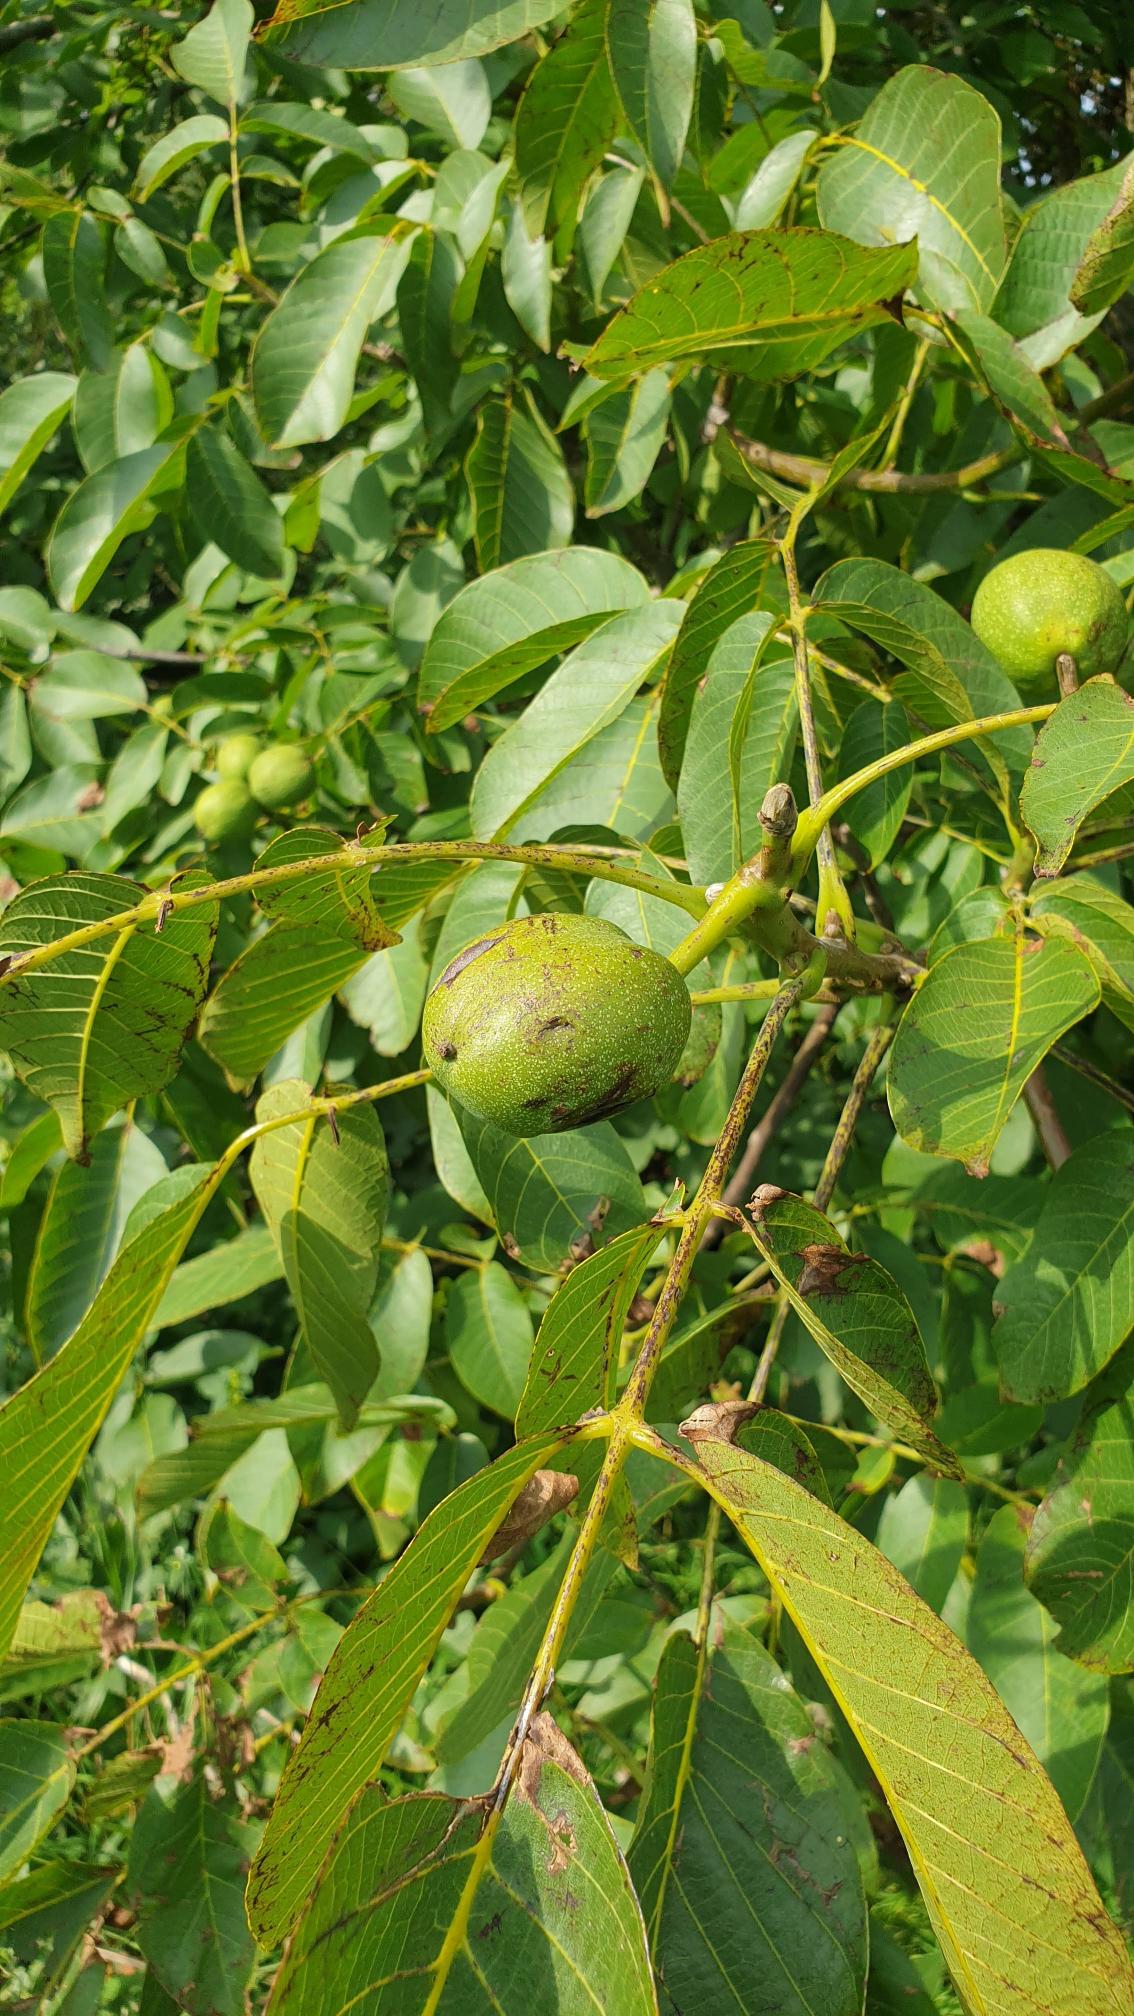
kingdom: Plantae
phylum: Tracheophyta
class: Magnoliopsida
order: Fagales
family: Juglandaceae
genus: Juglans
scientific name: Juglans regia
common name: Almindelig valnød
